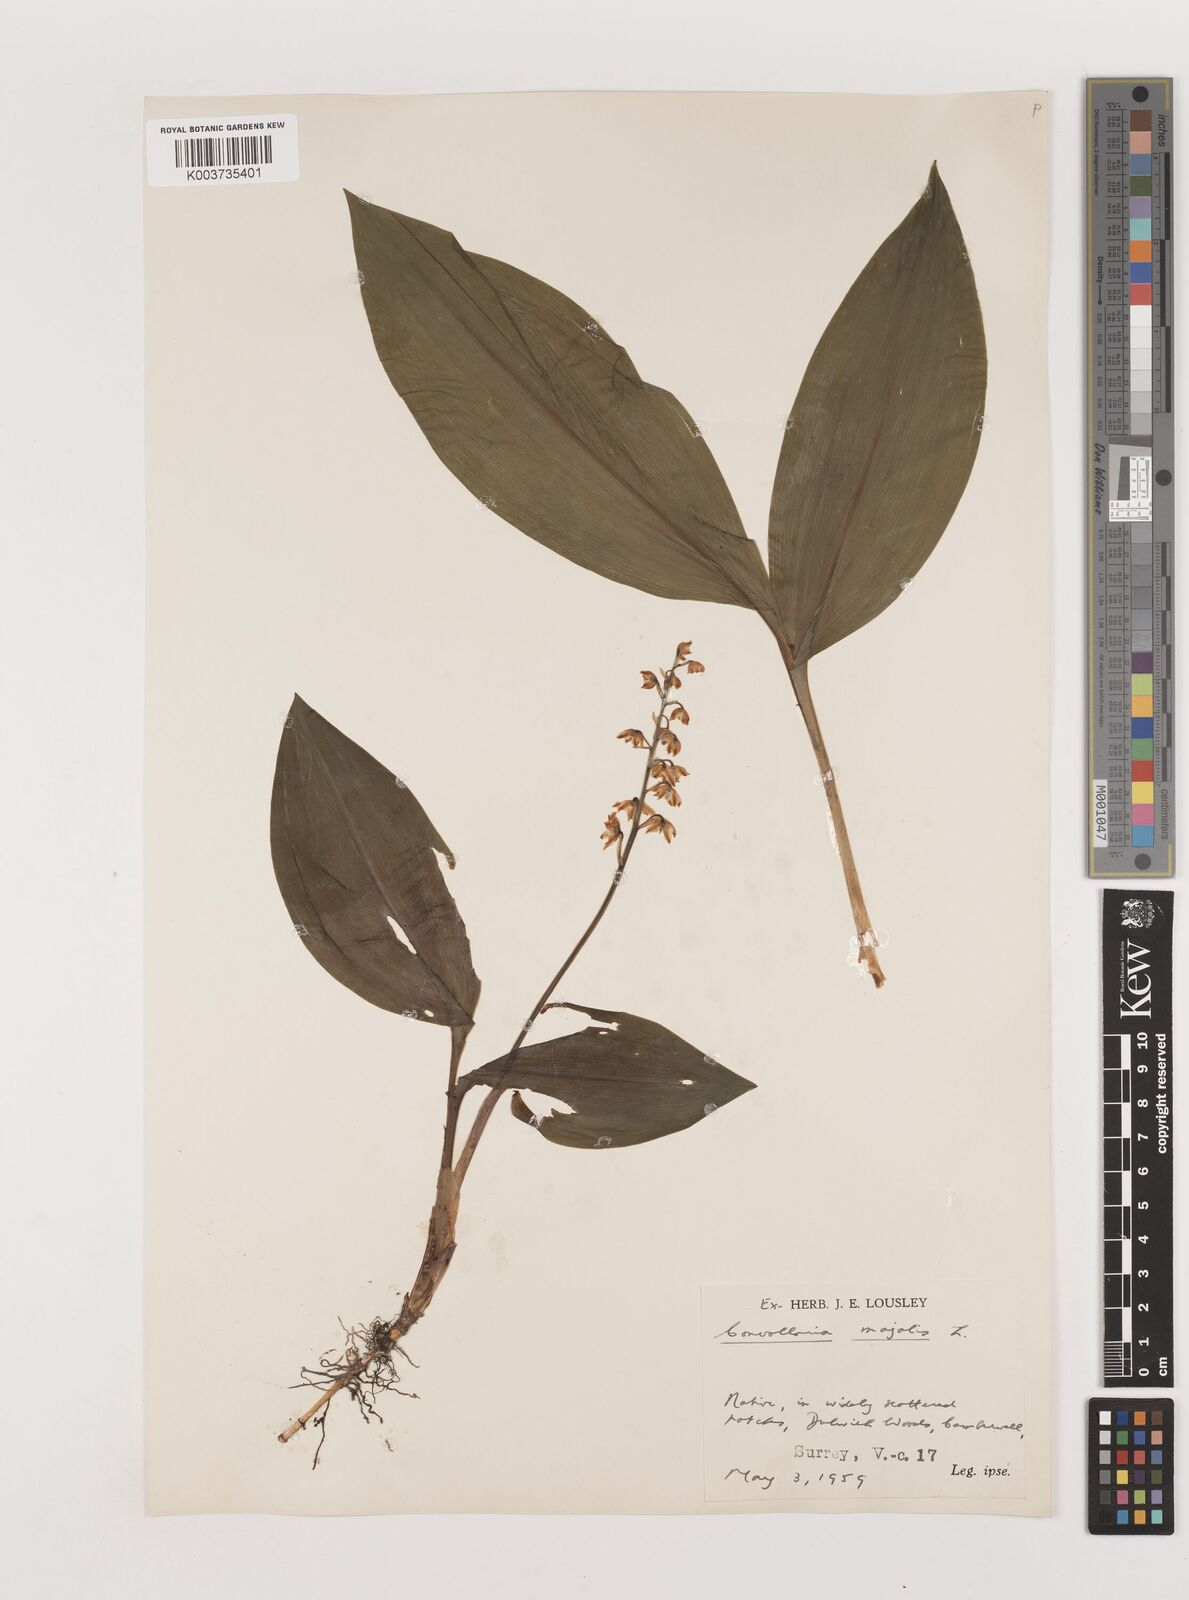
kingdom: Plantae
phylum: Tracheophyta
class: Liliopsida
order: Asparagales
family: Asparagaceae
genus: Convallaria
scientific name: Convallaria majalis
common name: Lily-of-the-valley
